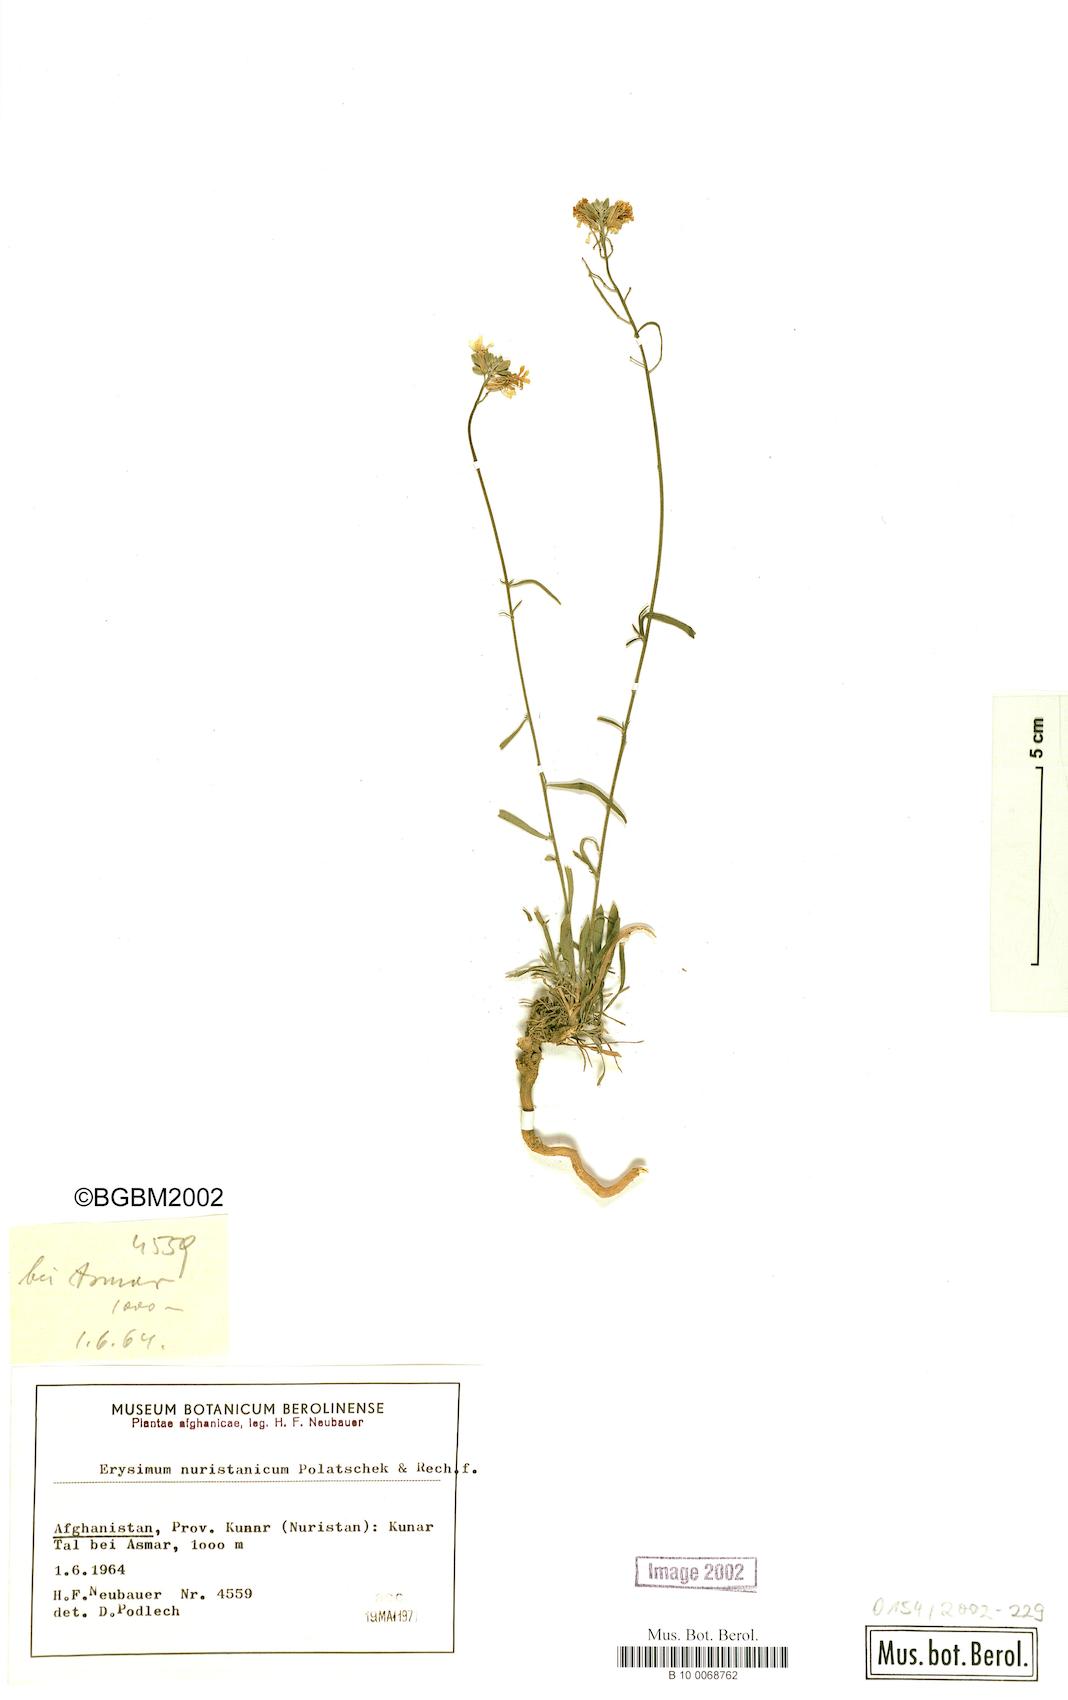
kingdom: Plantae
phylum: Tracheophyta
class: Magnoliopsida
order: Brassicales
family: Brassicaceae
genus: Erysimum
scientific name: Erysimum nuristanicum
